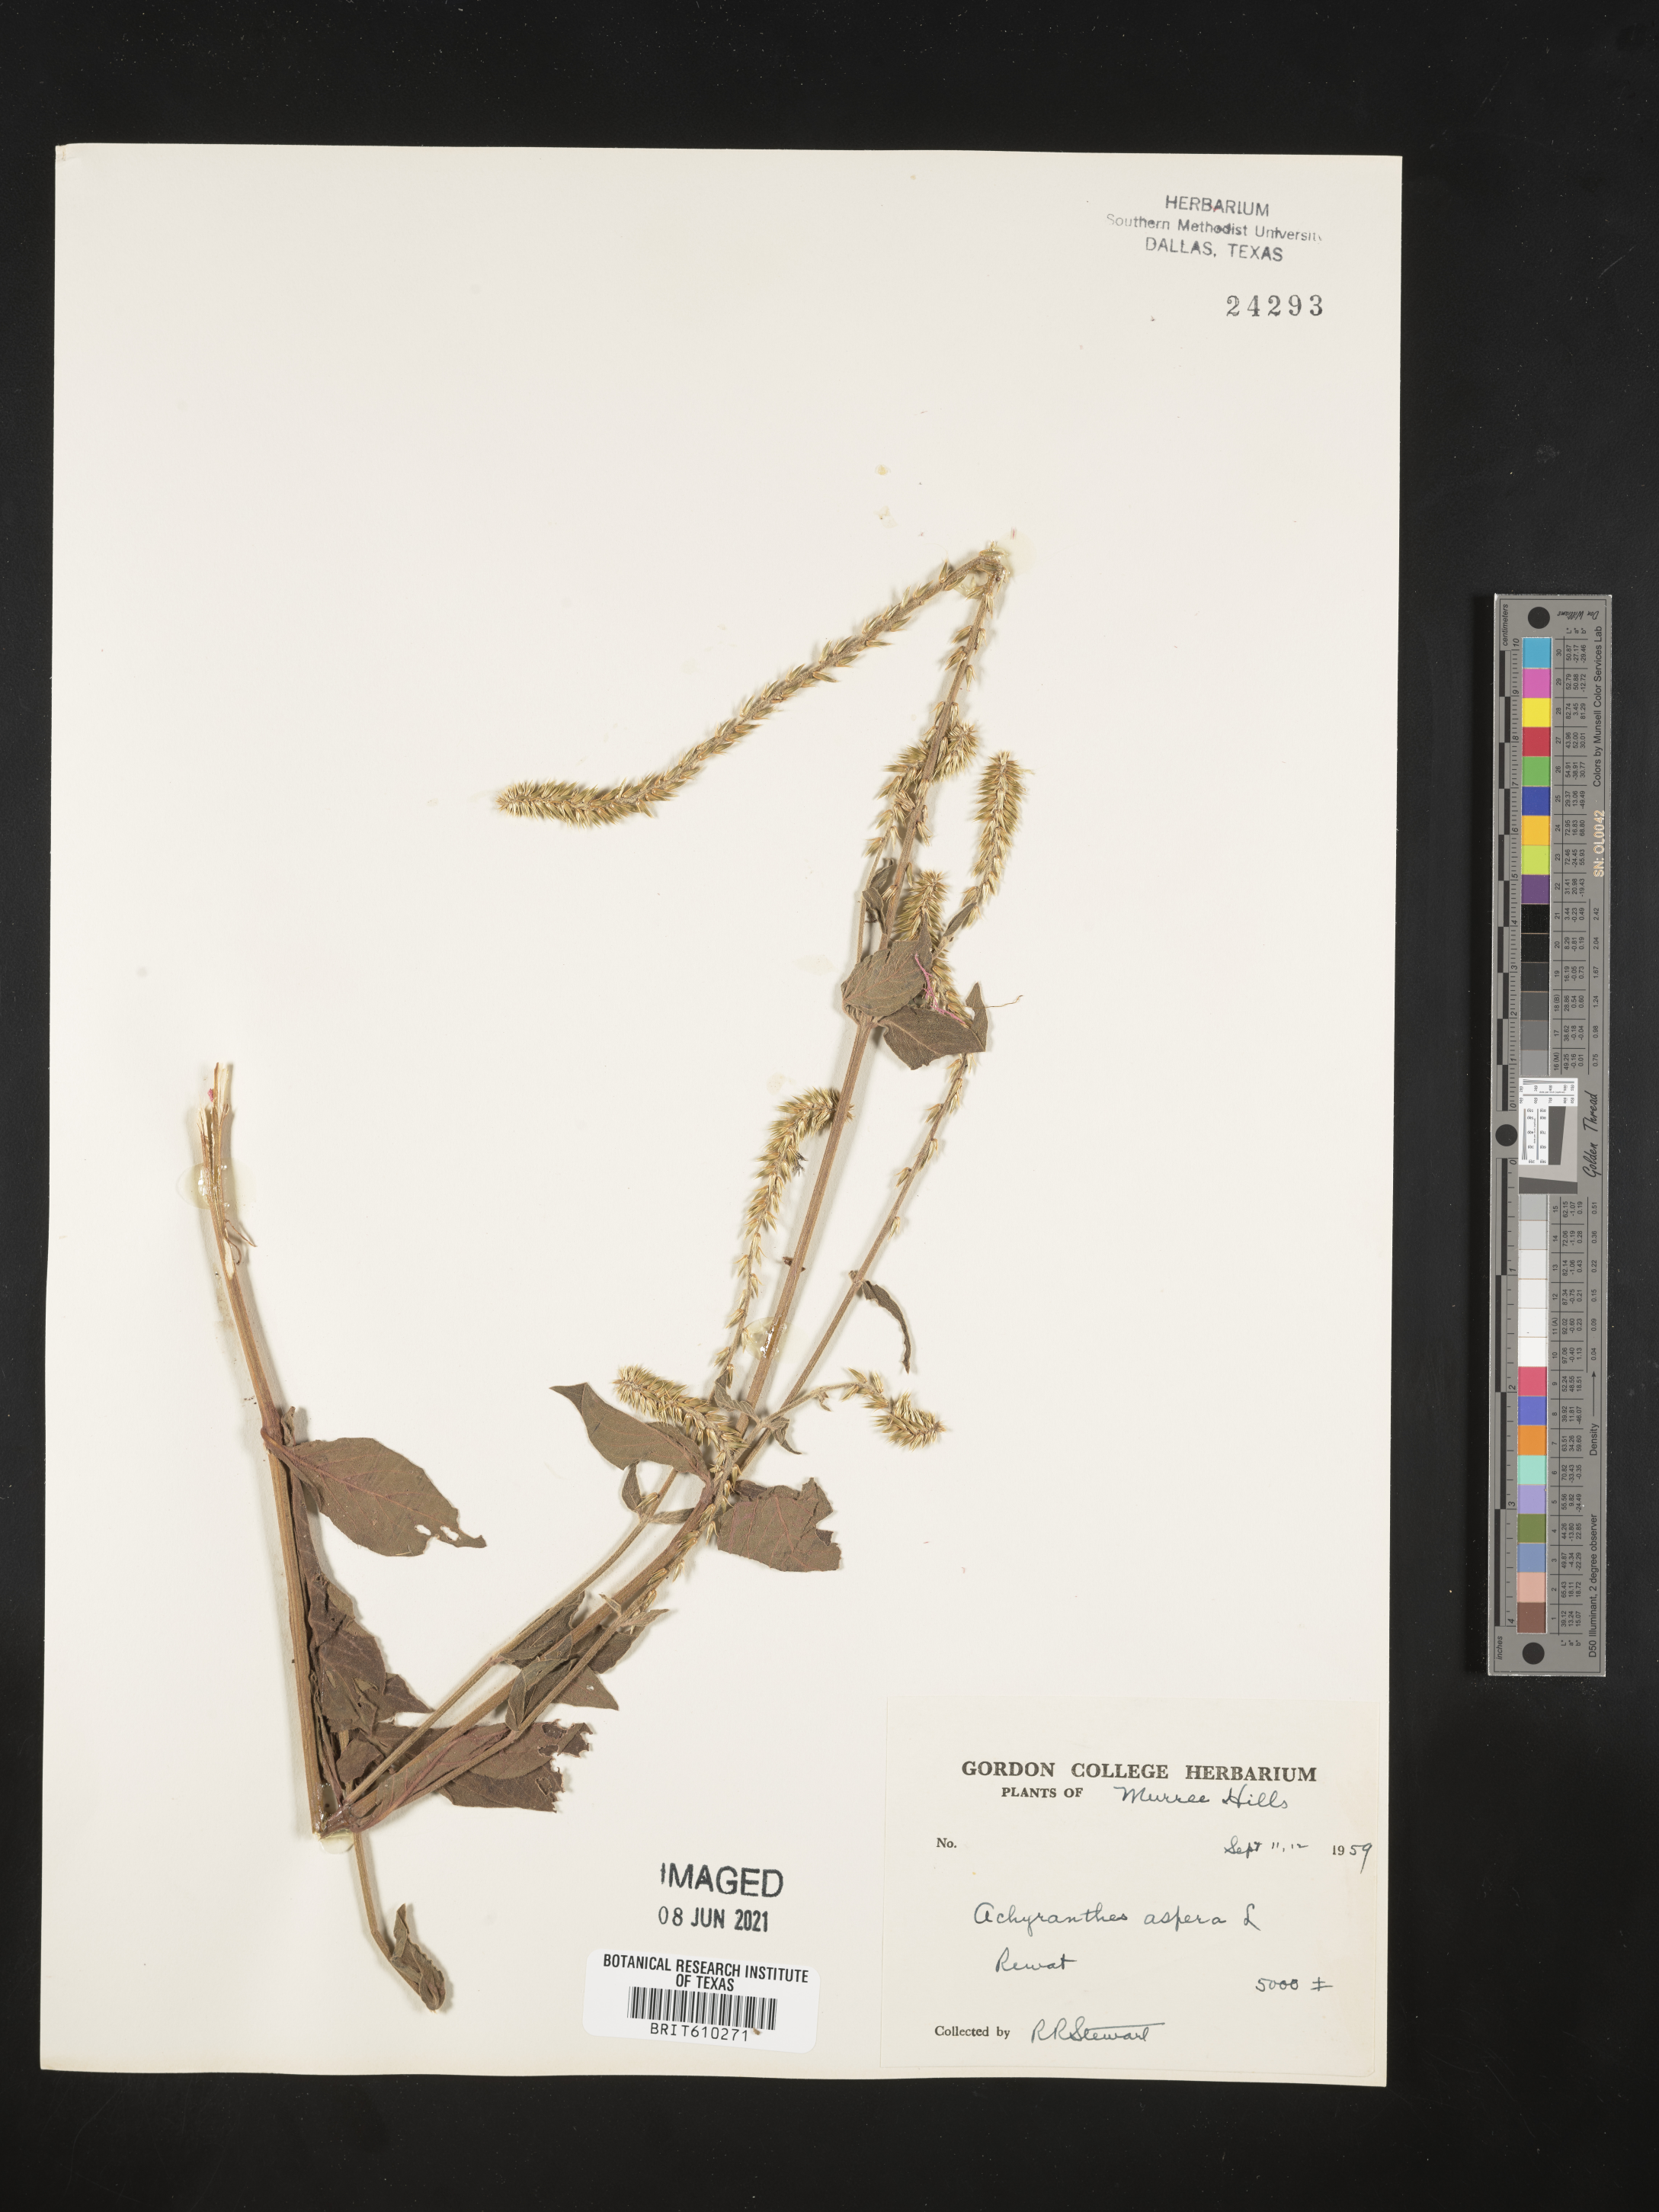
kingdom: Plantae
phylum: Tracheophyta
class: Magnoliopsida
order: Caryophyllales
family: Amaranthaceae
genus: Achyranthes
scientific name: Achyranthes aspera
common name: Devil's horsewhip
